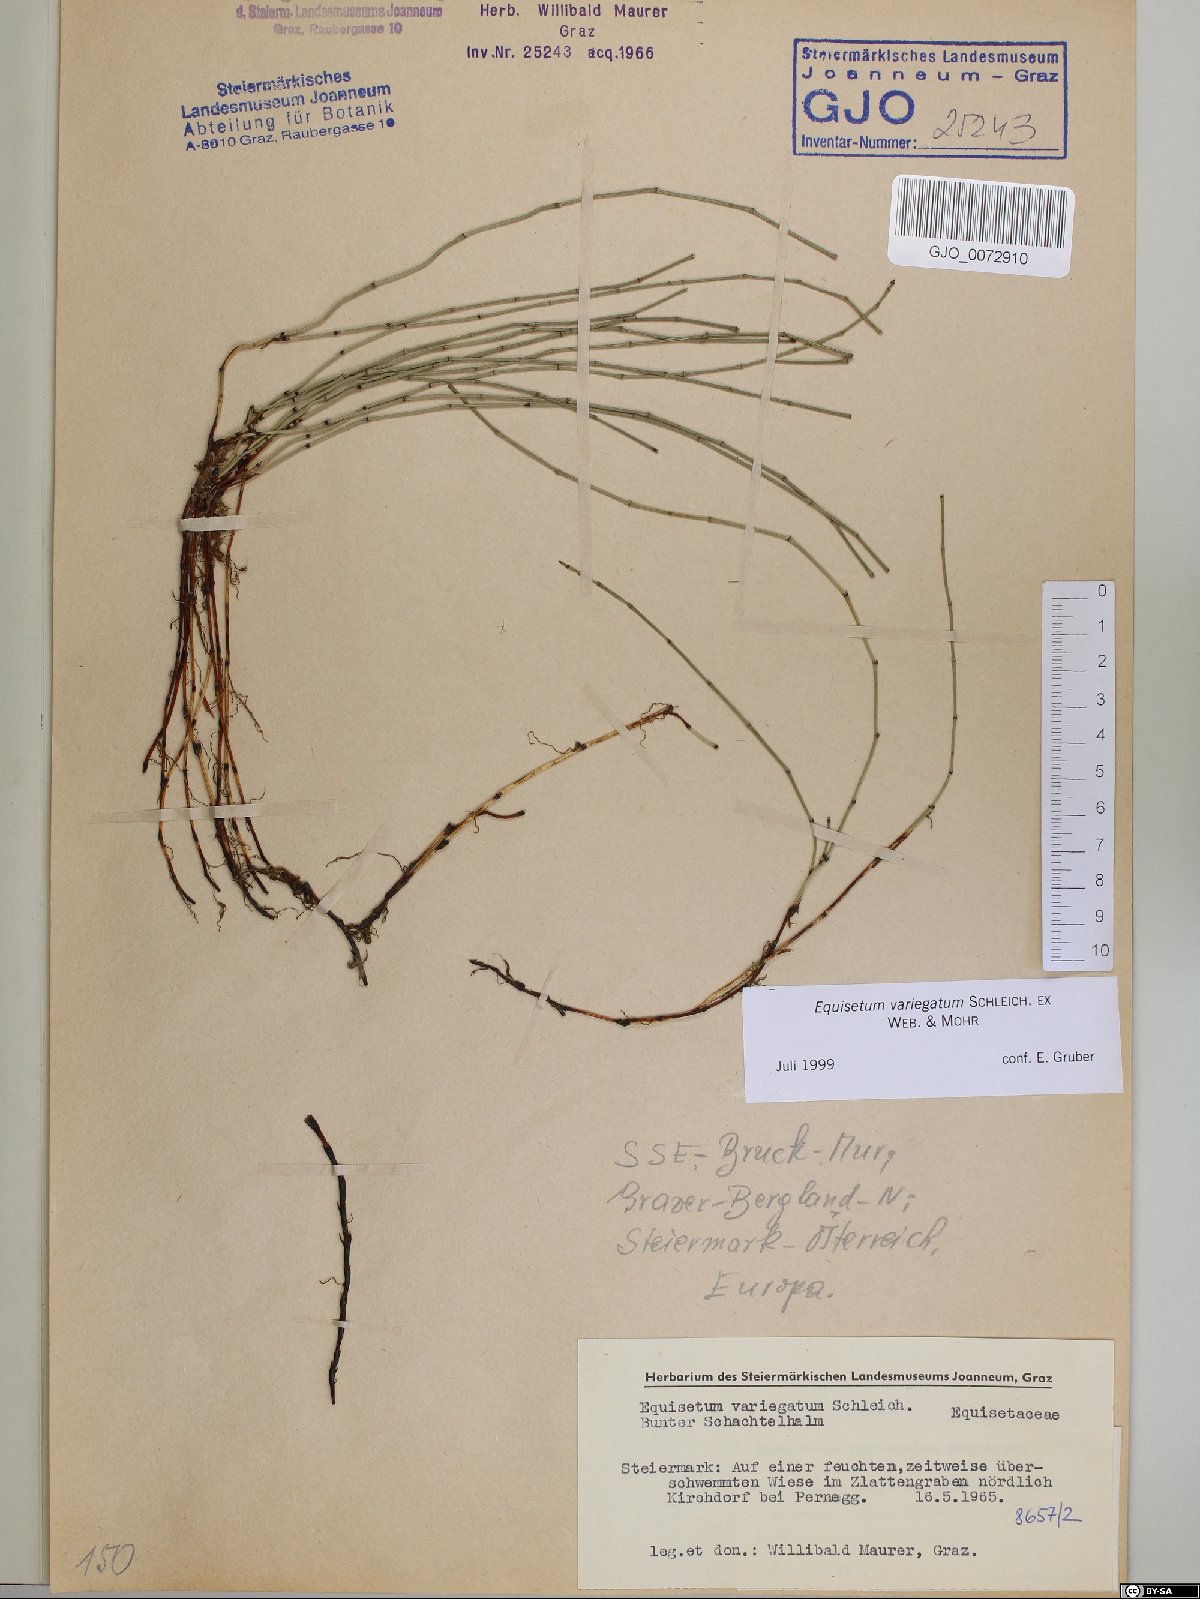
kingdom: Plantae
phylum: Tracheophyta
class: Polypodiopsida
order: Equisetales
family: Equisetaceae
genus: Equisetum
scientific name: Equisetum variegatum
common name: Variegated horsetail
